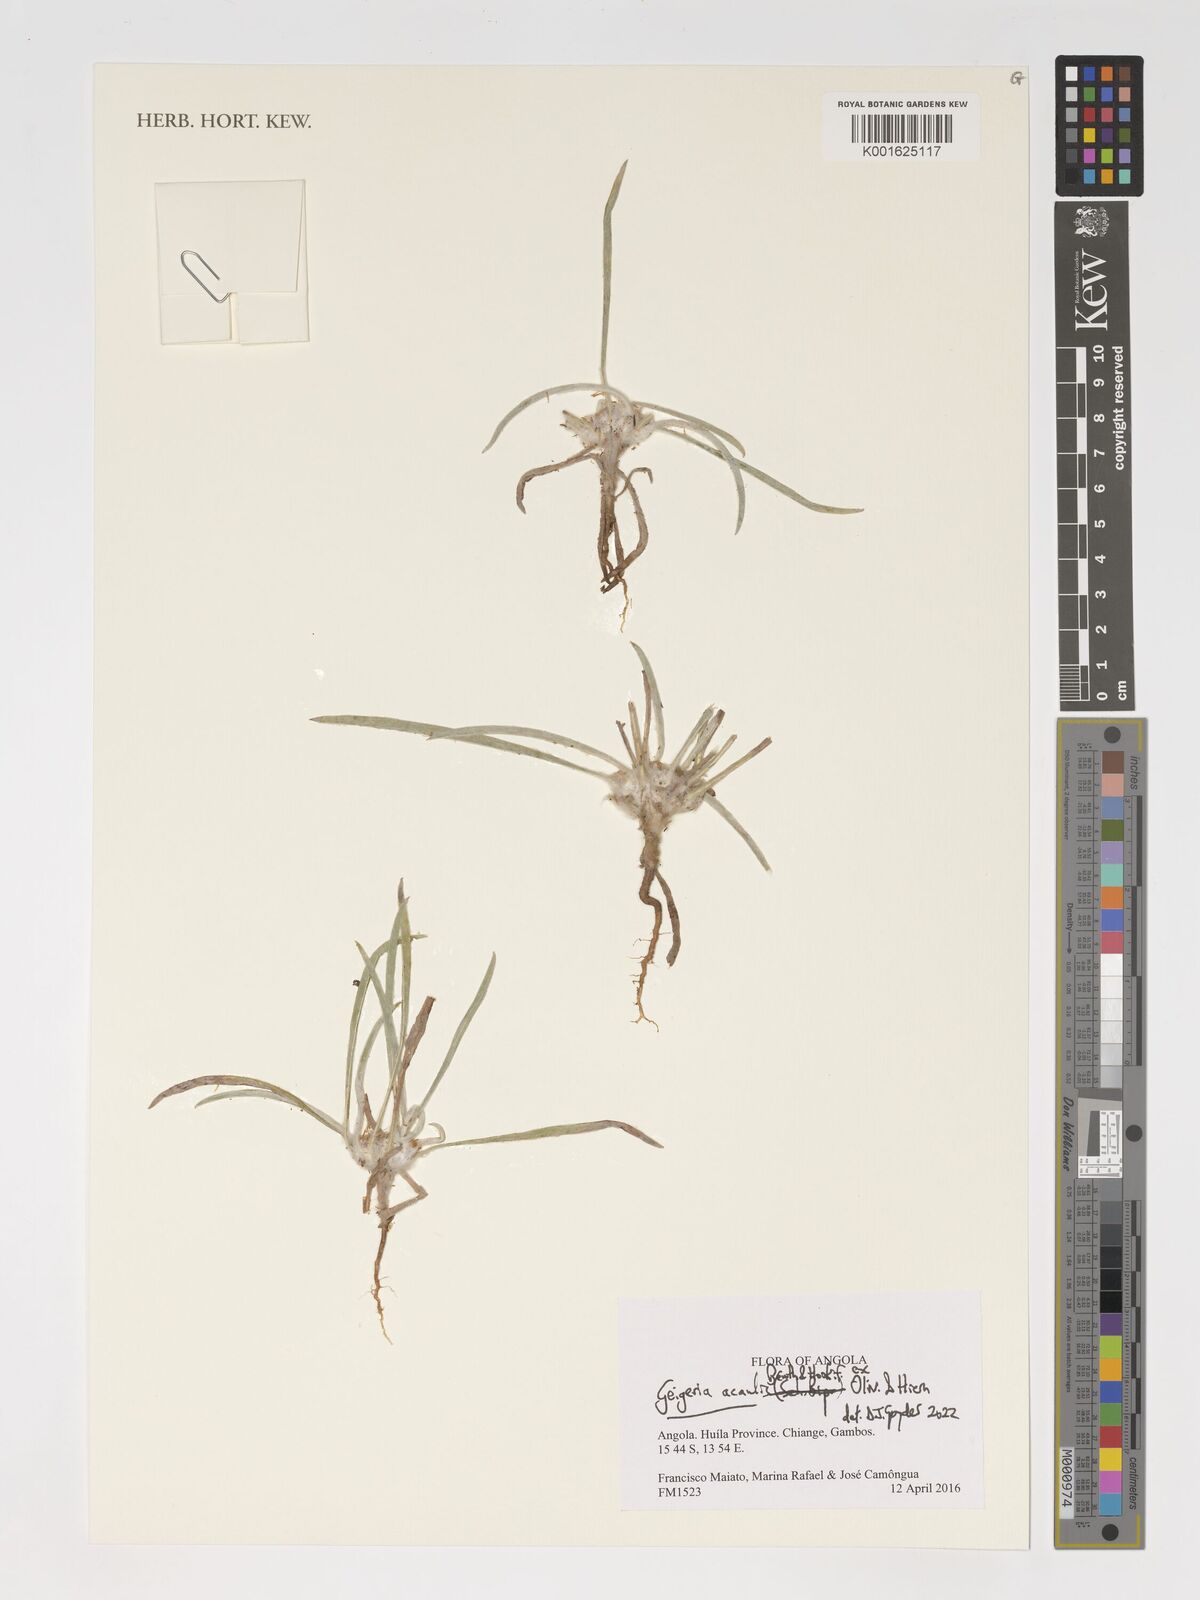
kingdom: Plantae
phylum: Tracheophyta
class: Magnoliopsida
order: Asterales
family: Asteraceae
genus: Geigeria
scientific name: Geigeria acaulis
